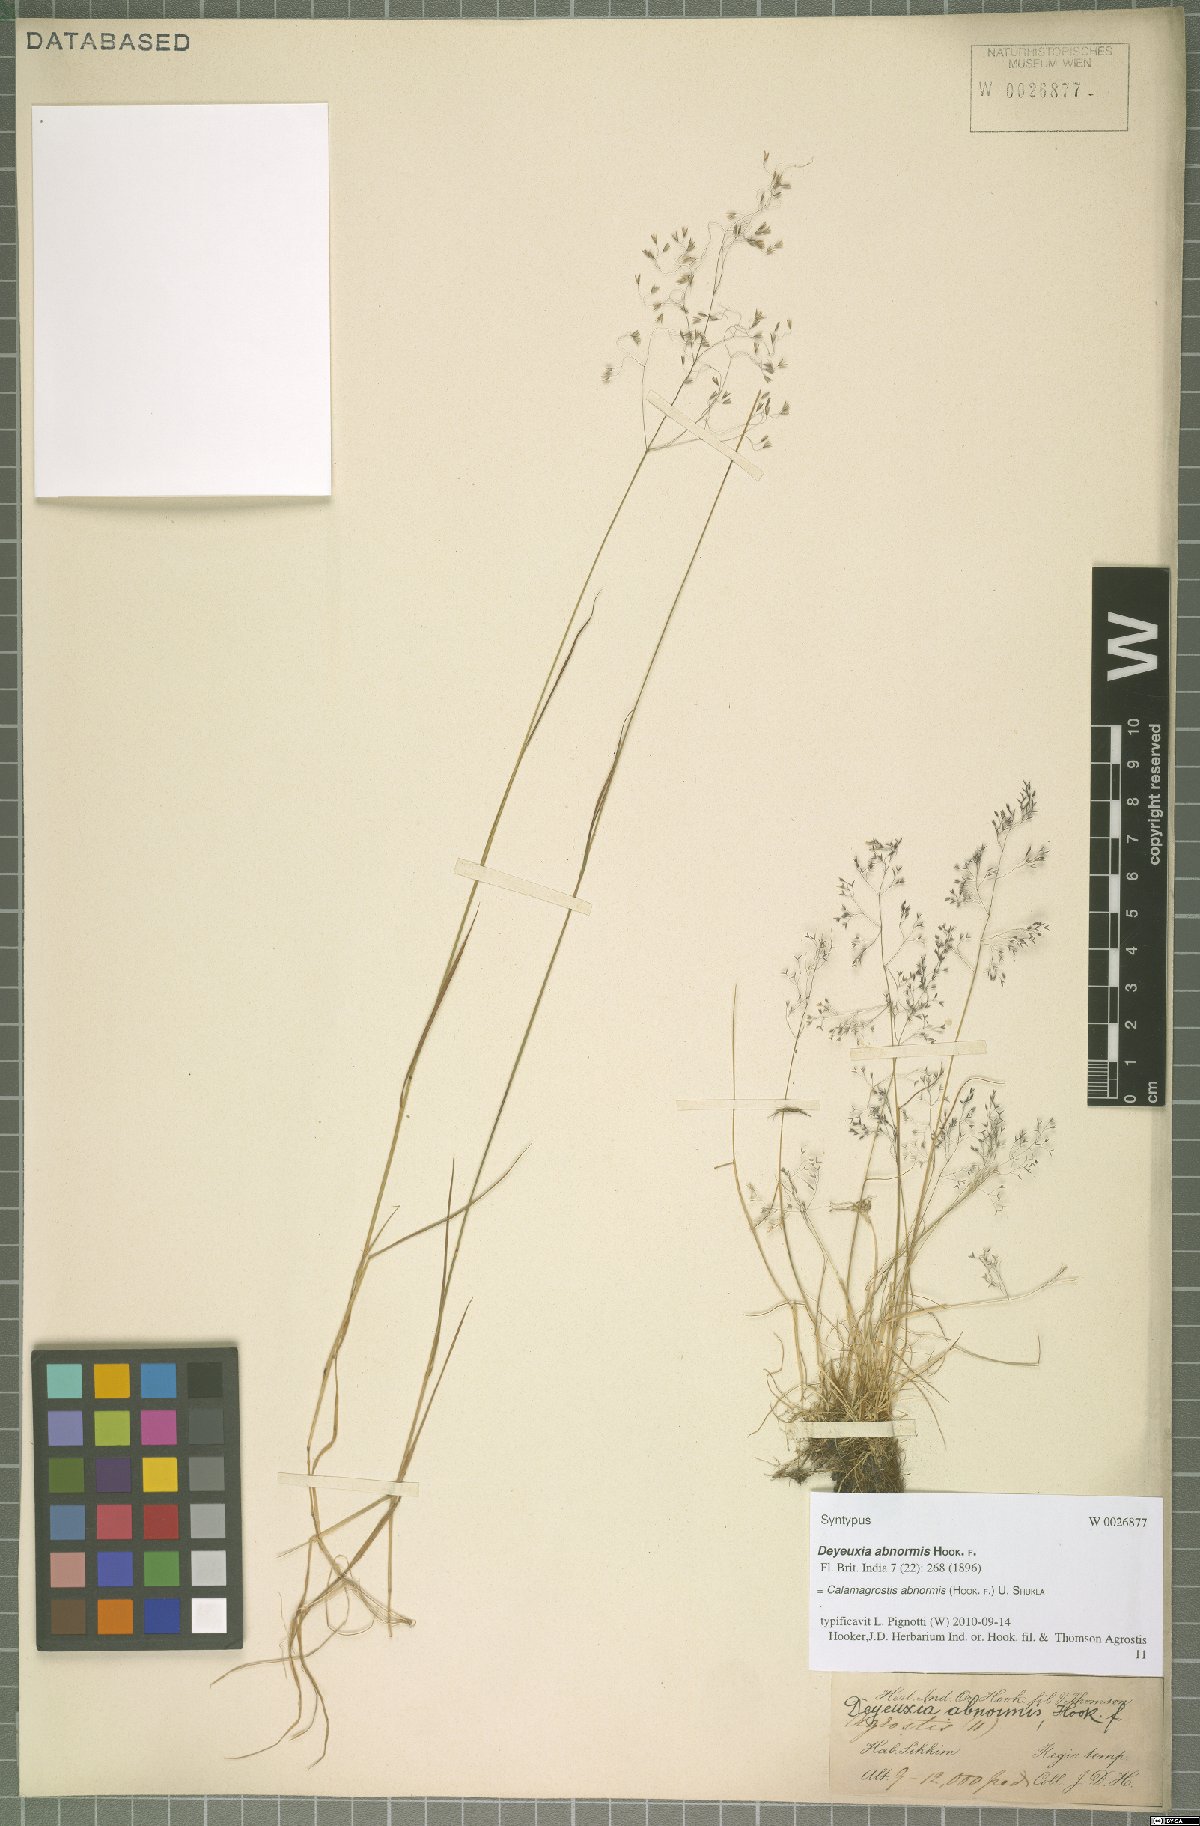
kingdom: Plantae
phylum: Tracheophyta
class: Liliopsida
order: Poales
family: Poaceae
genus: Calamagrostis
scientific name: Calamagrostis abnormis
